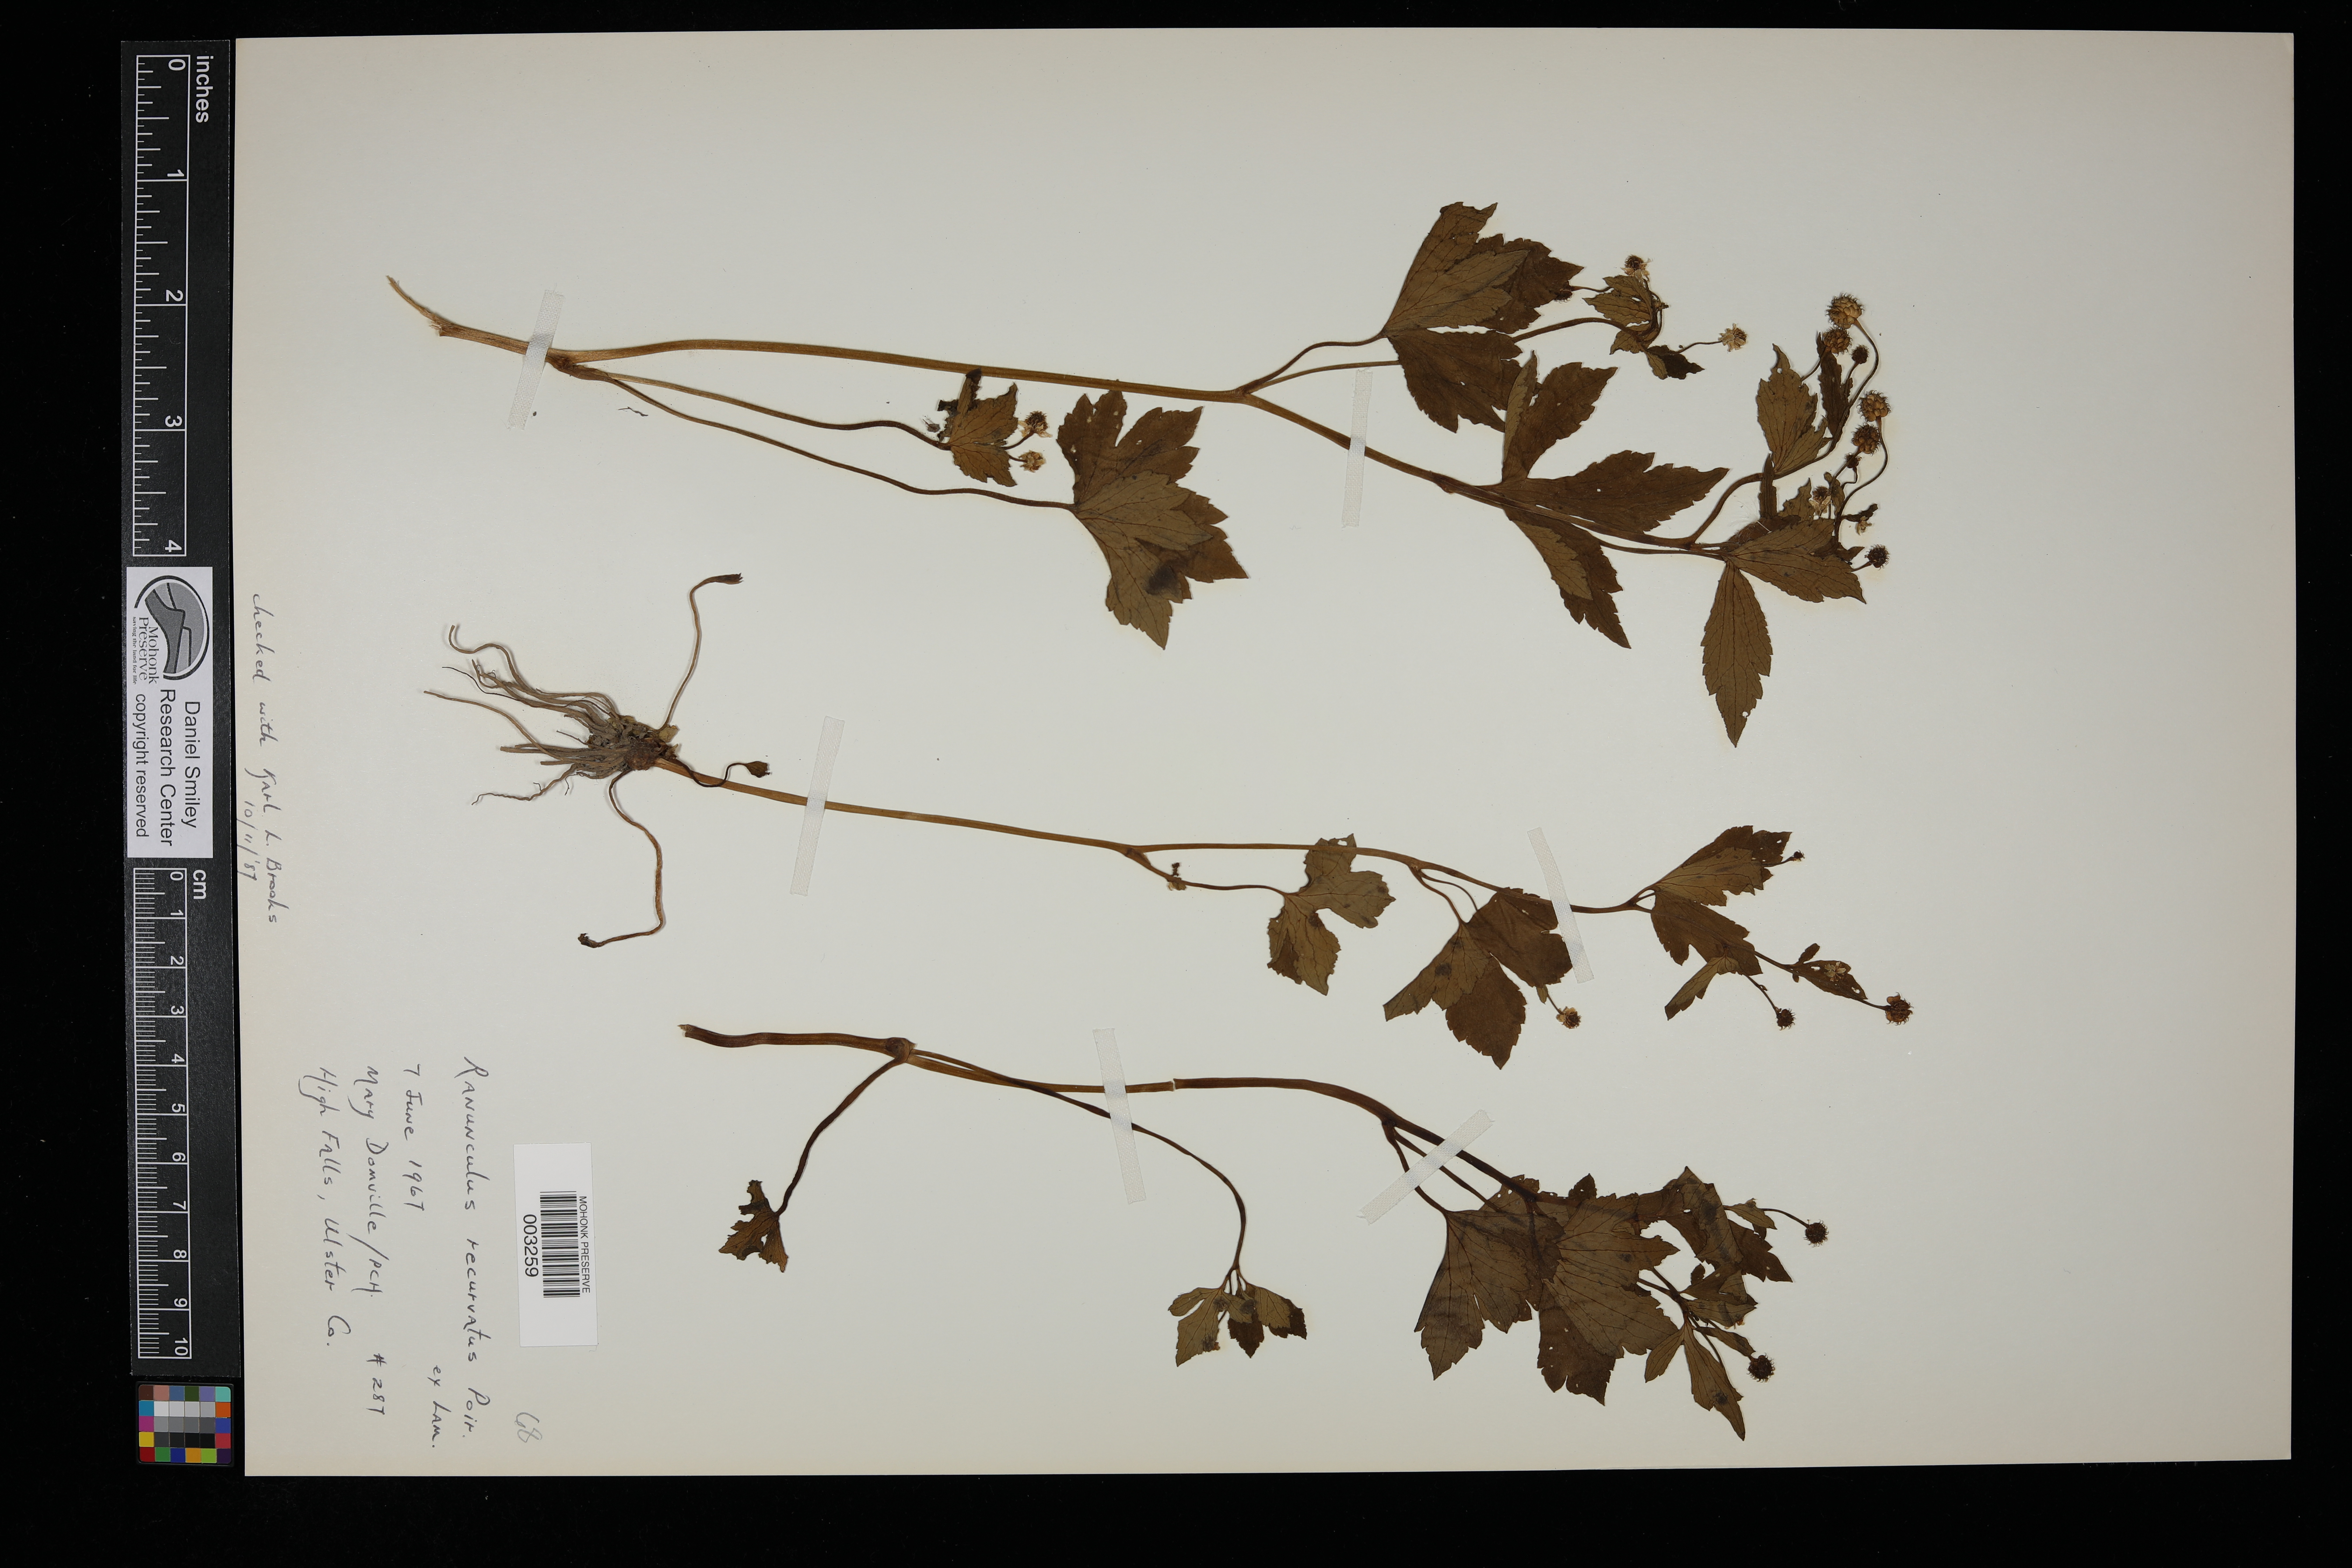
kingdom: Plantae
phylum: Tracheophyta
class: Magnoliopsida
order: Ranunculales
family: Ranunculaceae
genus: Ranunculus
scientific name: Ranunculus recurvatus
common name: Blisterwort
